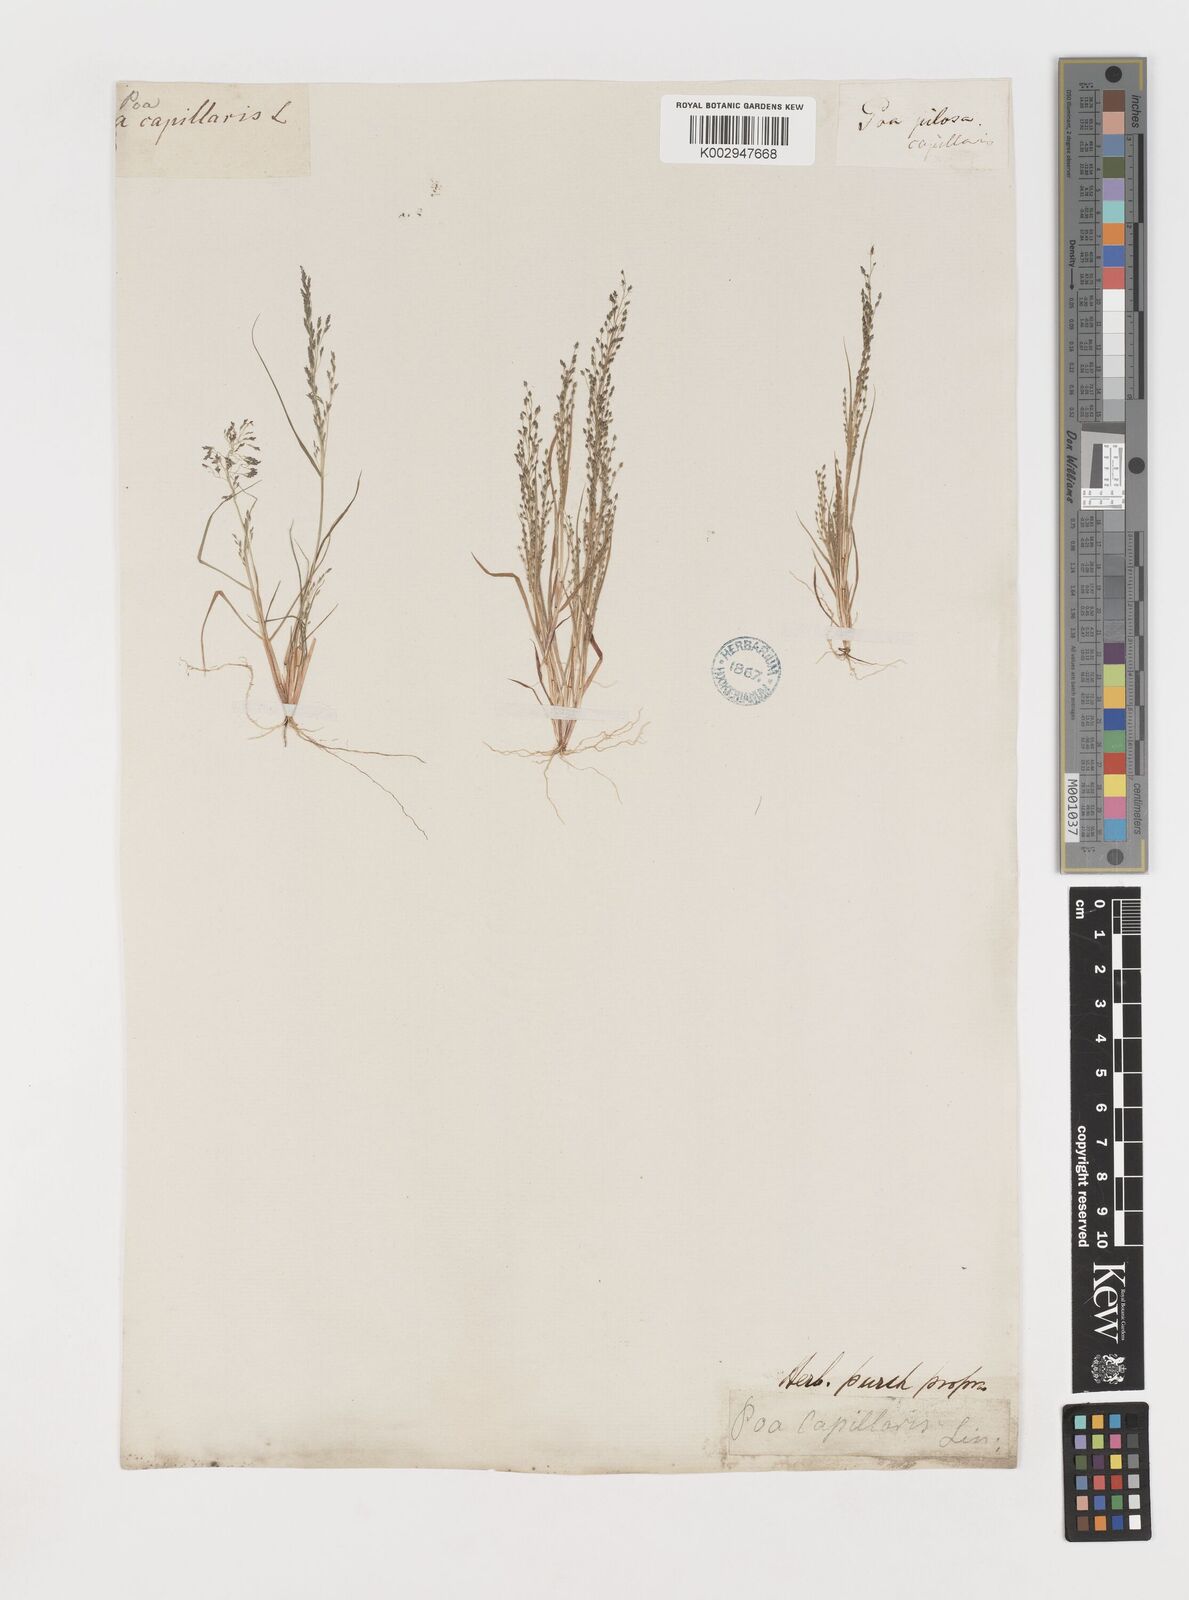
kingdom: Plantae
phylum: Tracheophyta
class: Liliopsida
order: Poales
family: Poaceae
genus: Eragrostis
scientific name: Eragrostis frankii
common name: Frank's lovegrass
